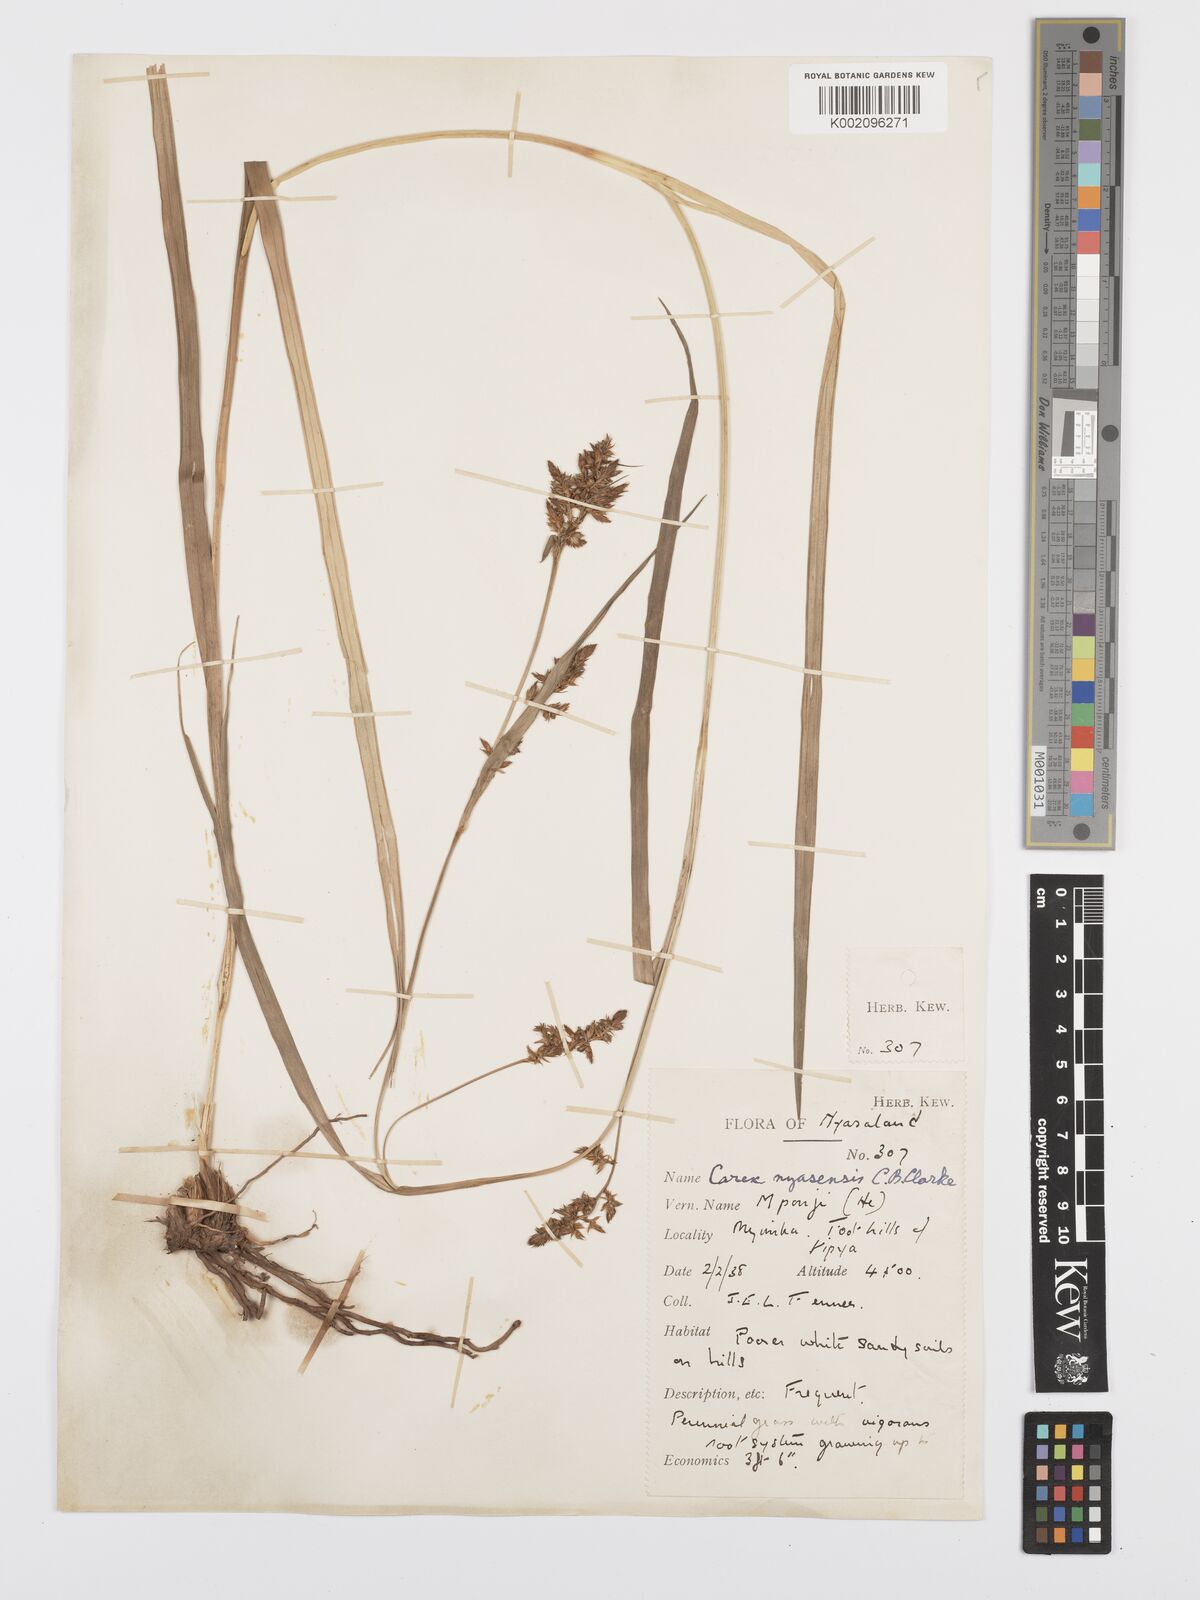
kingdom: Plantae
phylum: Tracheophyta
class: Liliopsida
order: Poales
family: Cyperaceae
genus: Carex
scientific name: Carex spicatopaniculata
